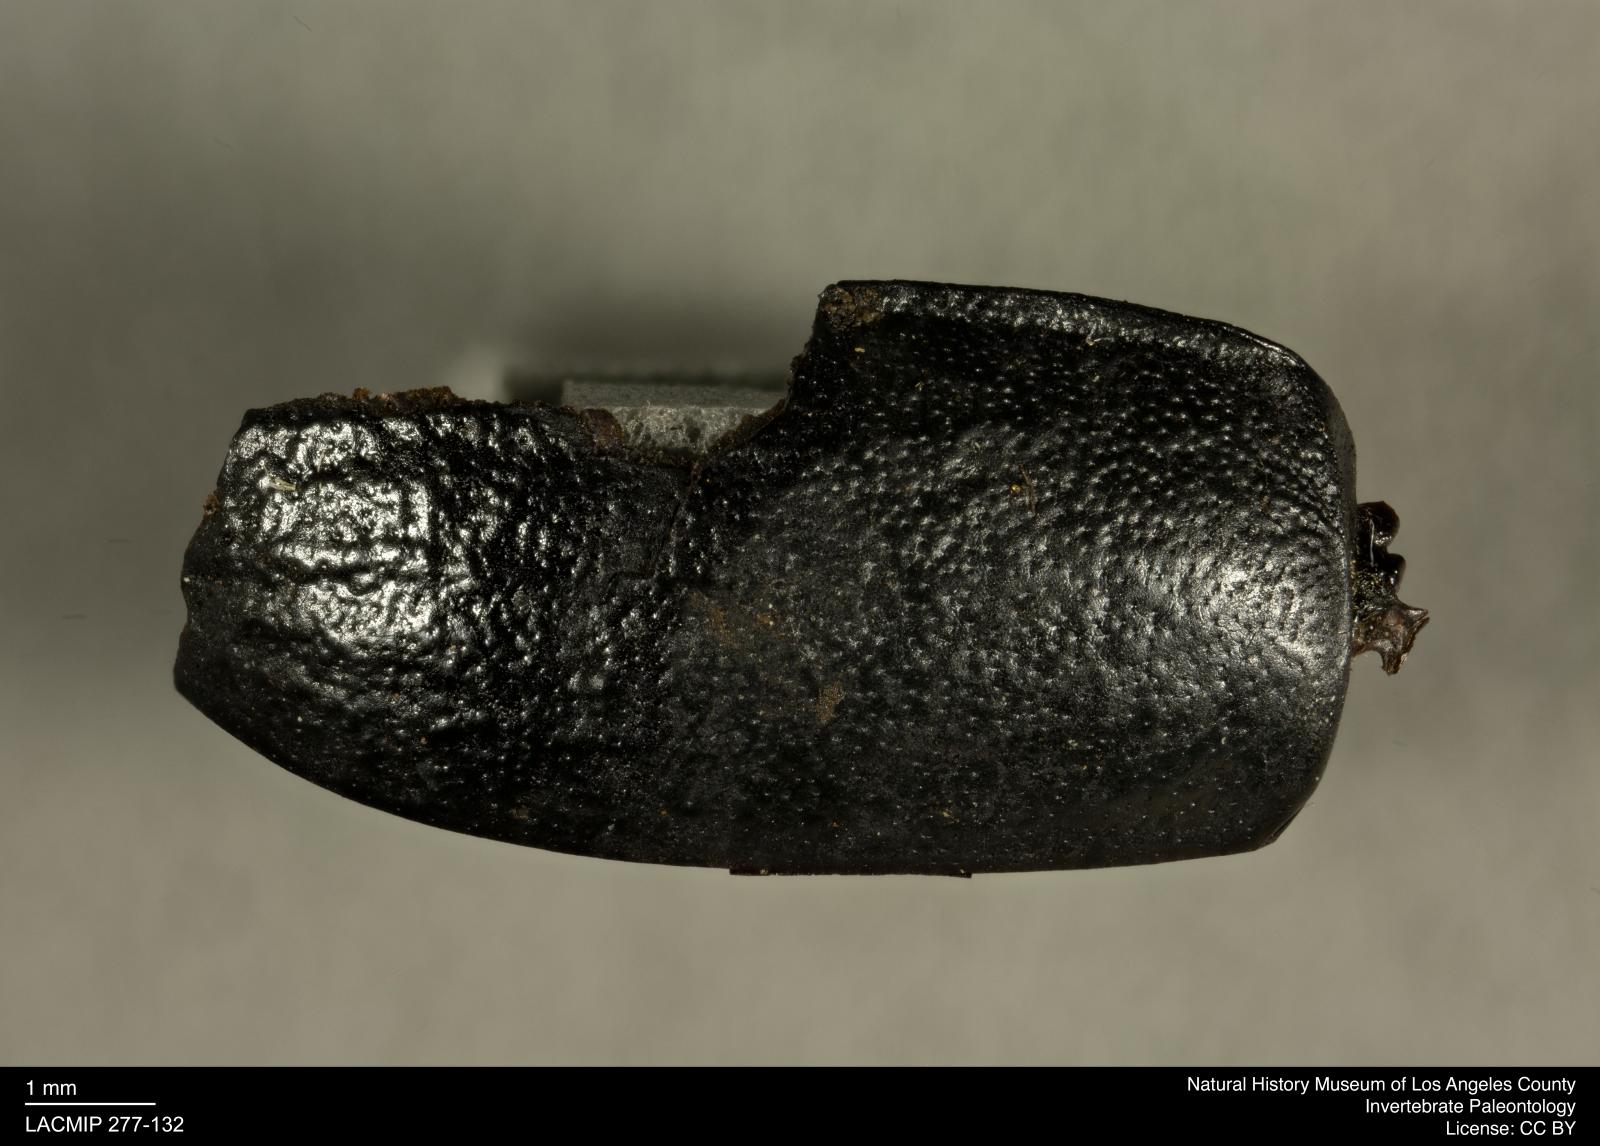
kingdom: Animalia
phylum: Arthropoda
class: Insecta
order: Coleoptera
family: Tenebrionidae
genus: Coniontis
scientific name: Coniontis abdominalis
